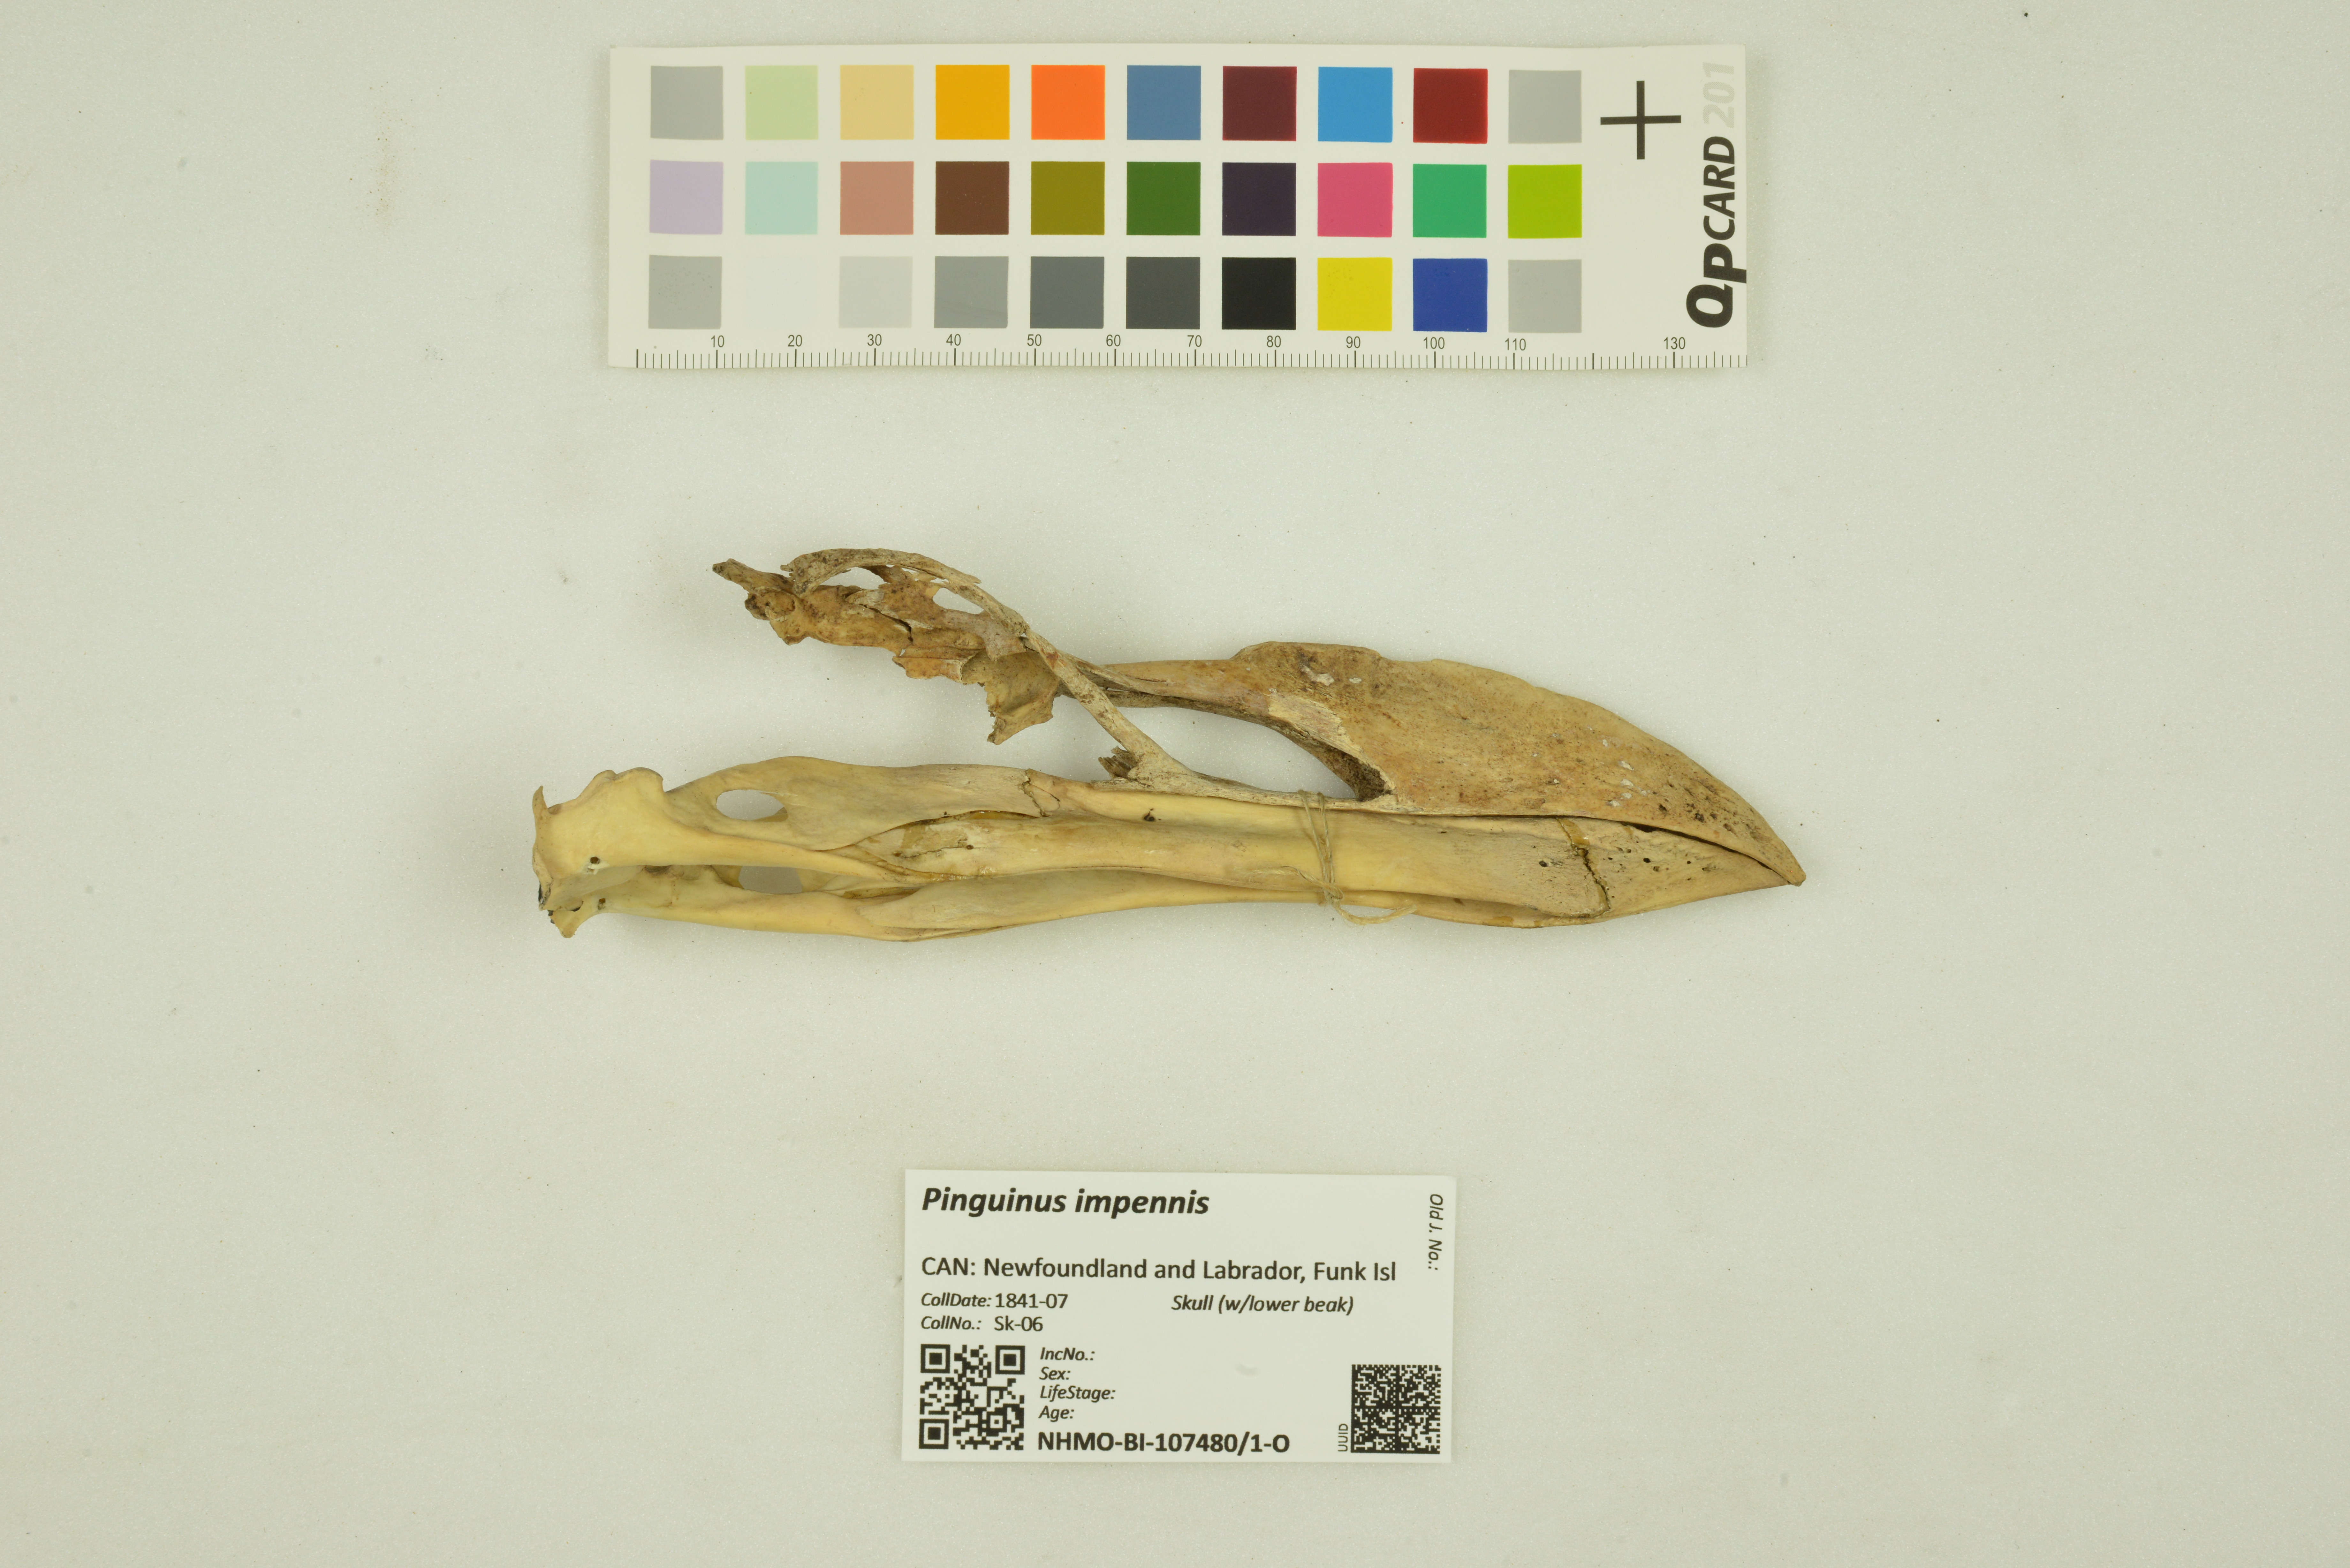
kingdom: Animalia
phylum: Chordata
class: Aves
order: Charadriiformes
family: Alcidae
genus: Pinguinus
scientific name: Pinguinus impennis
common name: Great auk
